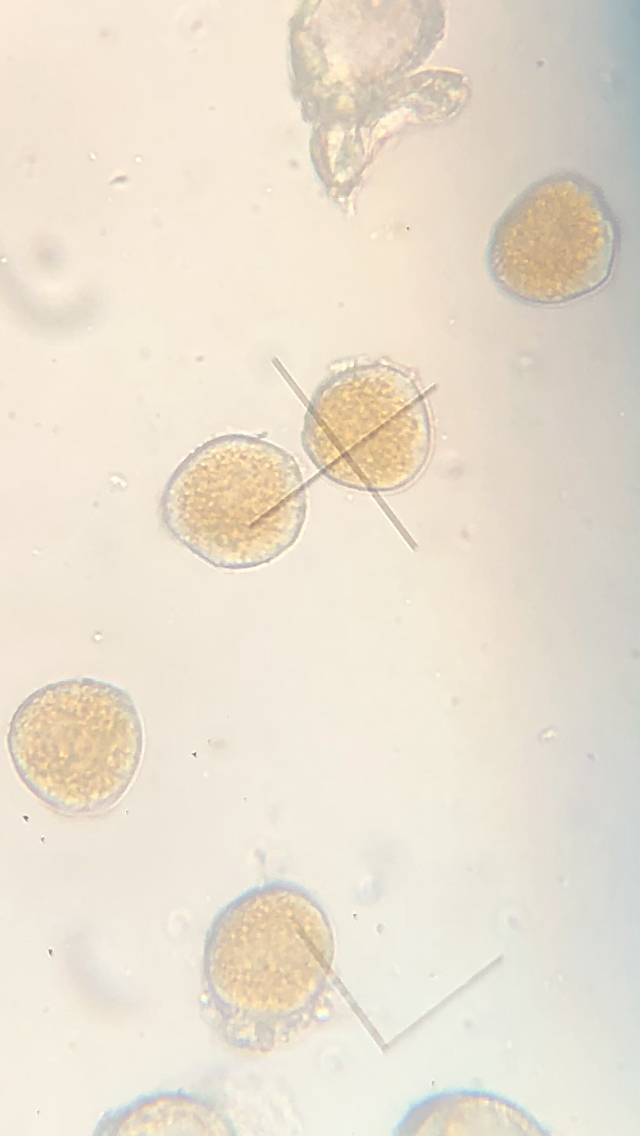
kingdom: Fungi
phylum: Basidiomycota
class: Pucciniomycetes
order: Pucciniales
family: Pucciniaceae
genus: Uromyces
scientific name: Uromyces dactylidis
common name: ranunkel-encellerust
